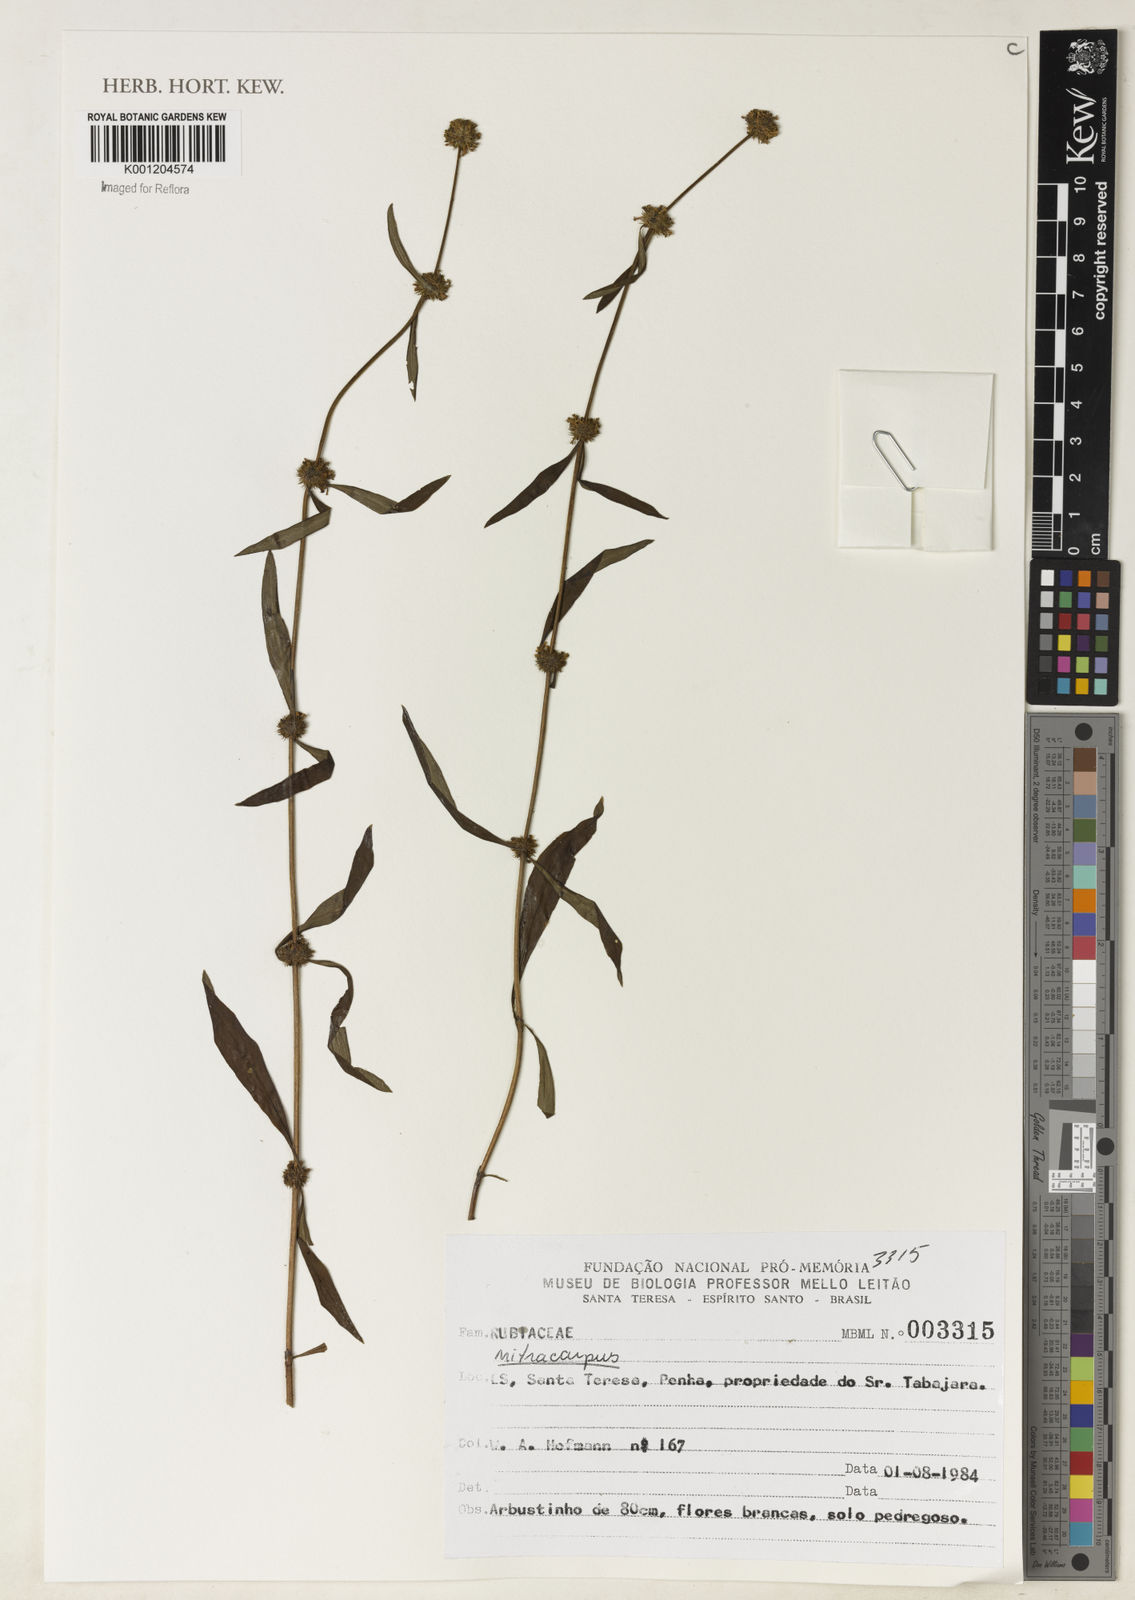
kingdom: Plantae
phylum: Tracheophyta
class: Magnoliopsida
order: Gentianales
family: Rubiaceae
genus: Mitracarpus
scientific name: Mitracarpus
